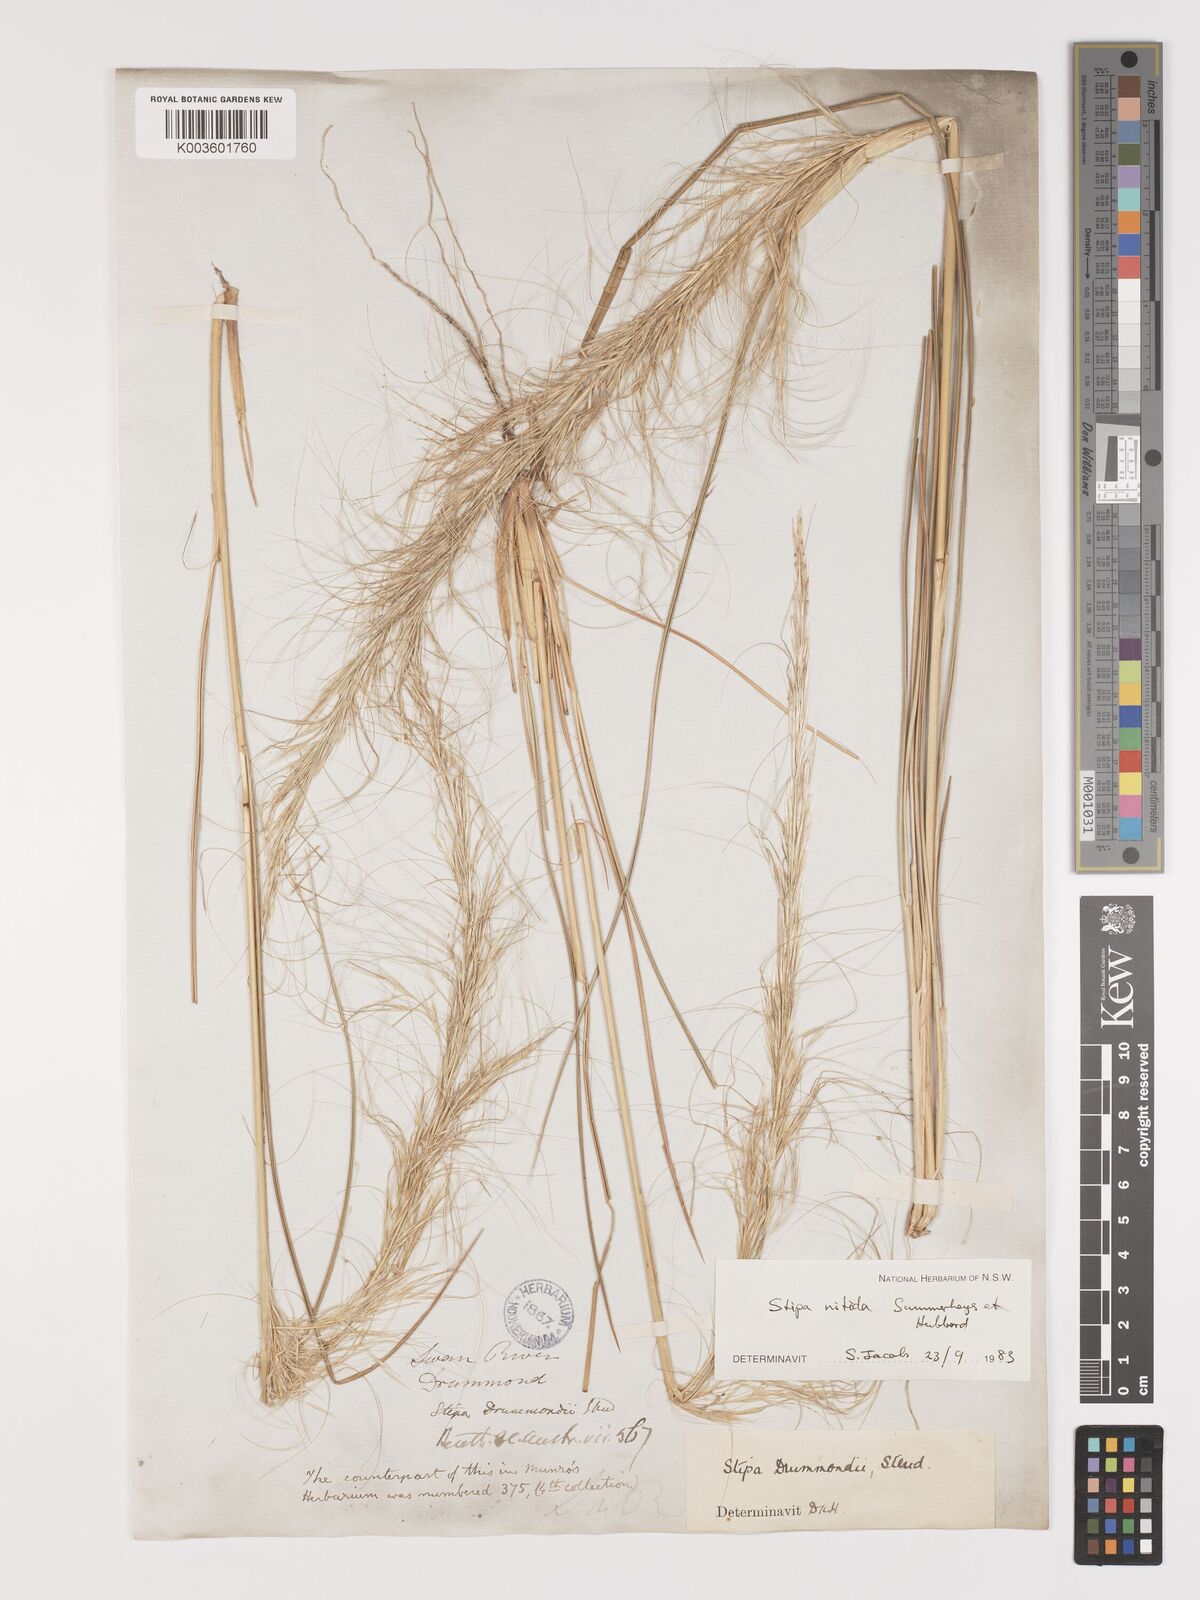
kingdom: Plantae
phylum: Tracheophyta
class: Liliopsida
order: Poales
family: Poaceae
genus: Austrostipa
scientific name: Austrostipa nitida
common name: Balcarra grass
